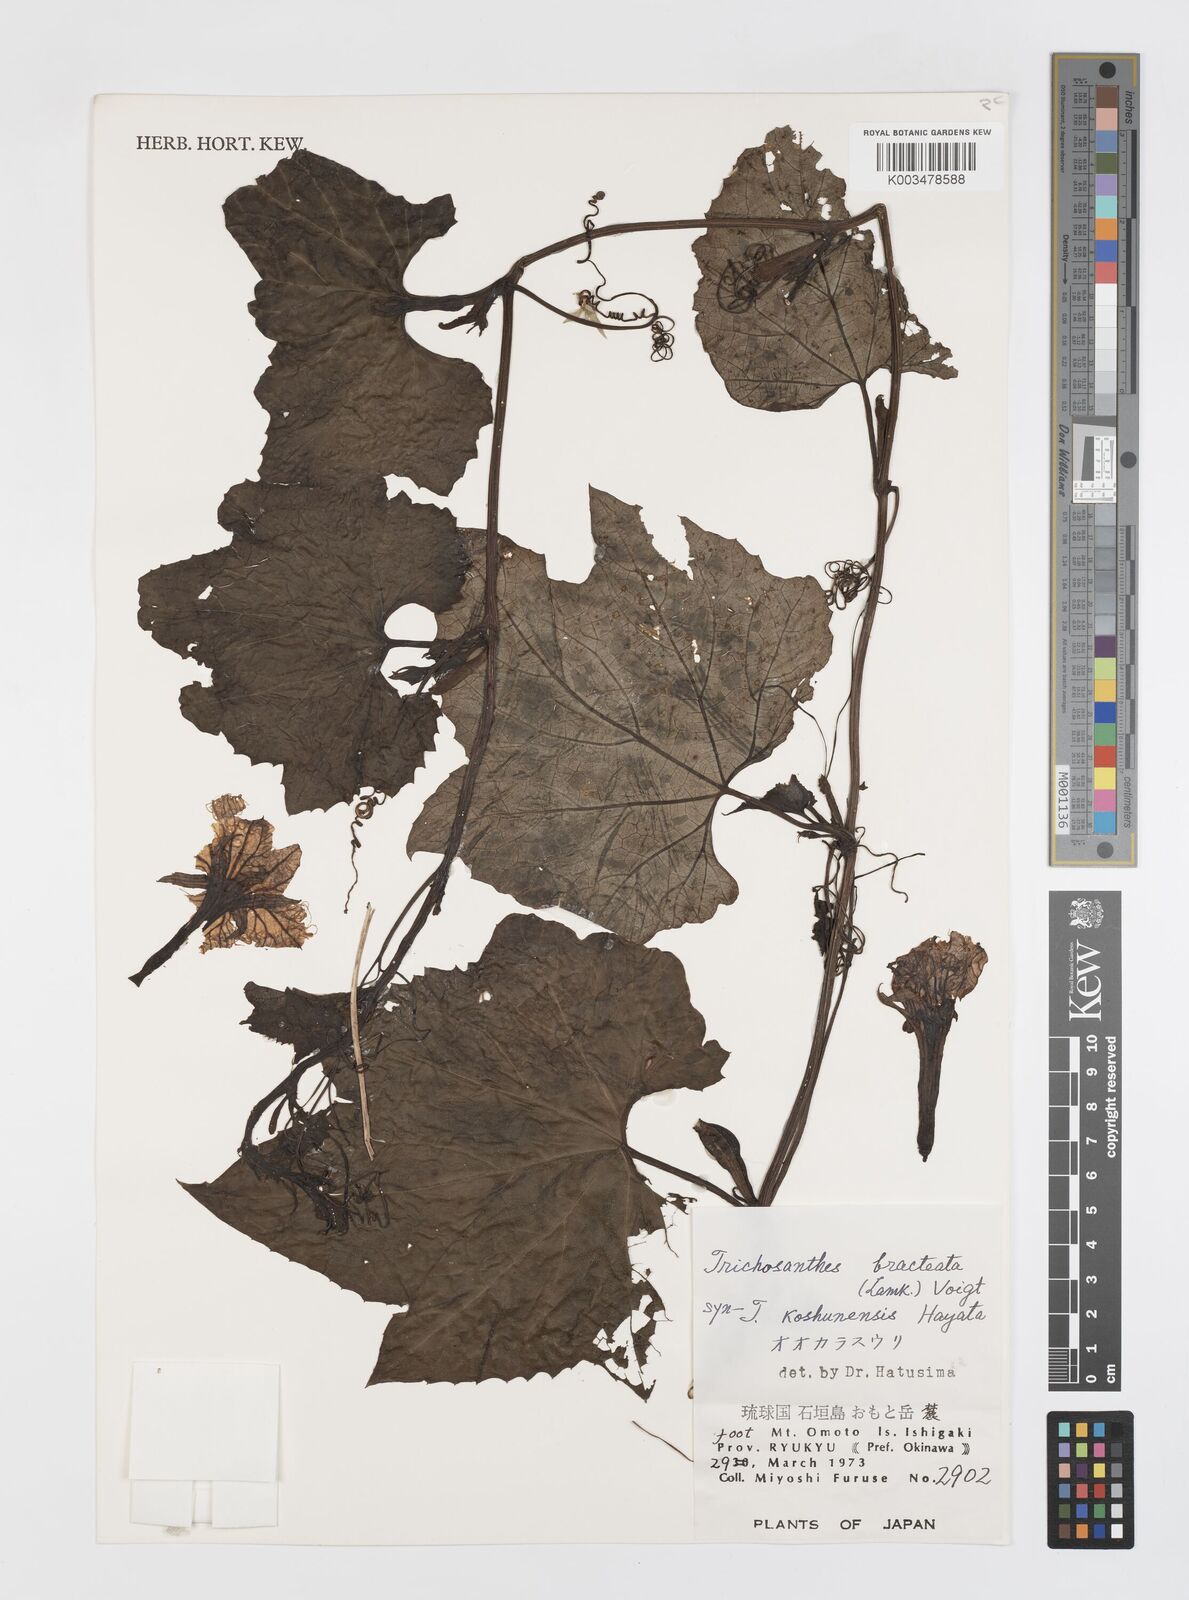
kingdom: Plantae
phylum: Tracheophyta
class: Magnoliopsida
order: Cucurbitales
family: Cucurbitaceae
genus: Trichosanthes
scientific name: Trichosanthes laceribractea
